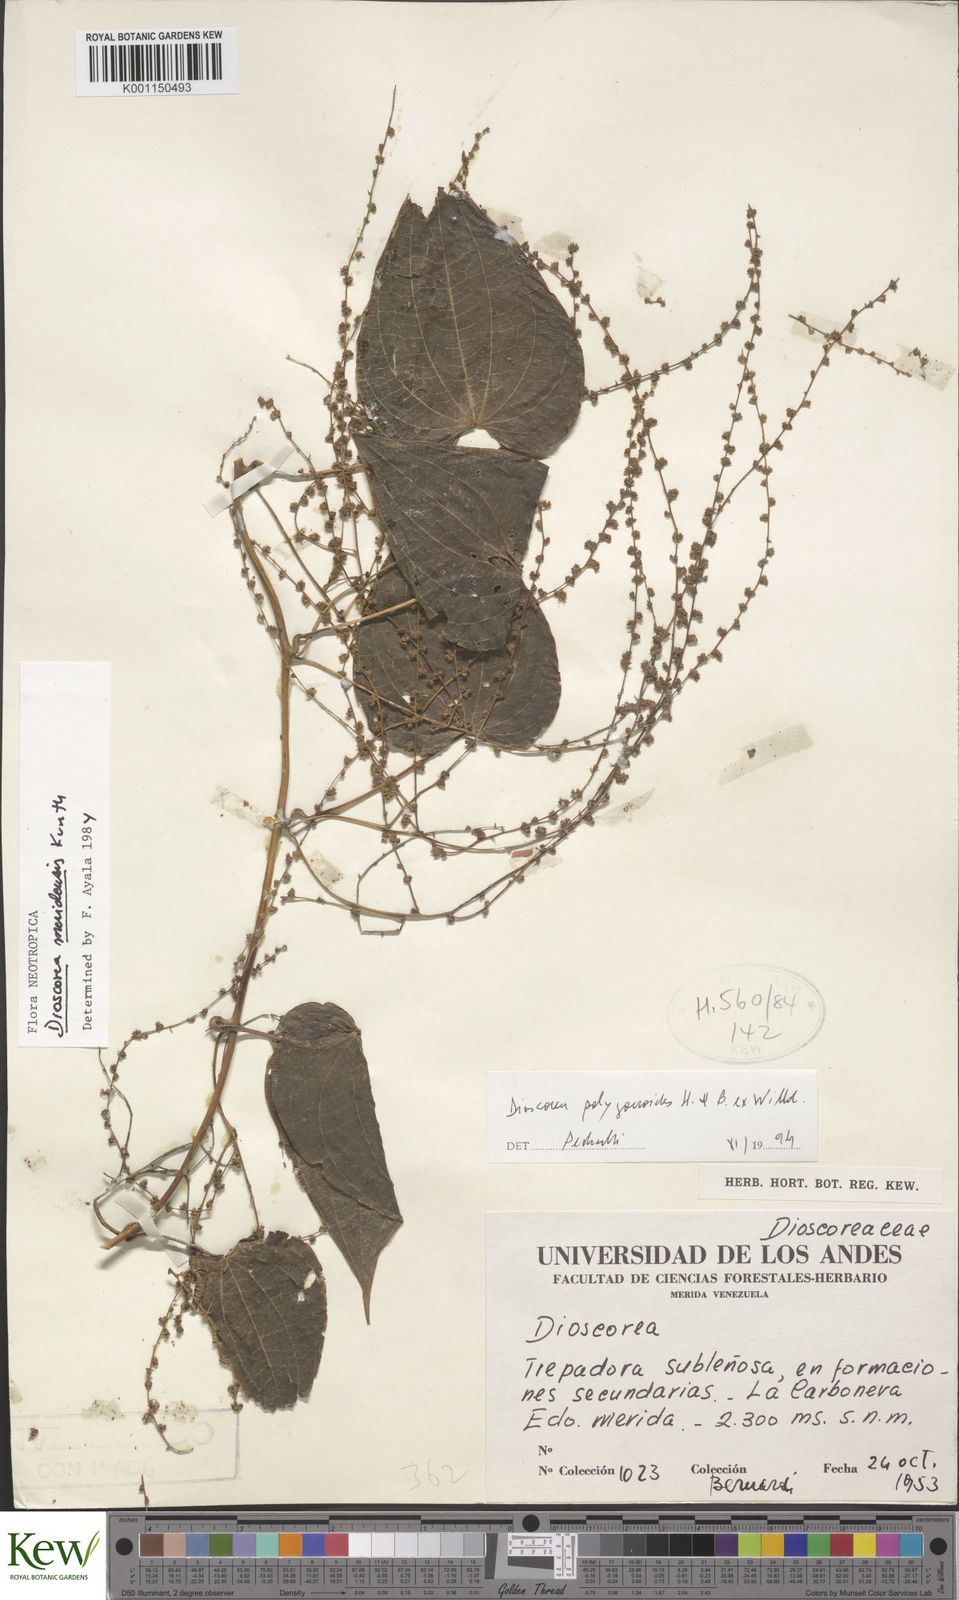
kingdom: Plantae
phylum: Tracheophyta
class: Liliopsida
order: Dioscoreales
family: Dioscoreaceae
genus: Dioscorea
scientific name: Dioscorea meridensis
